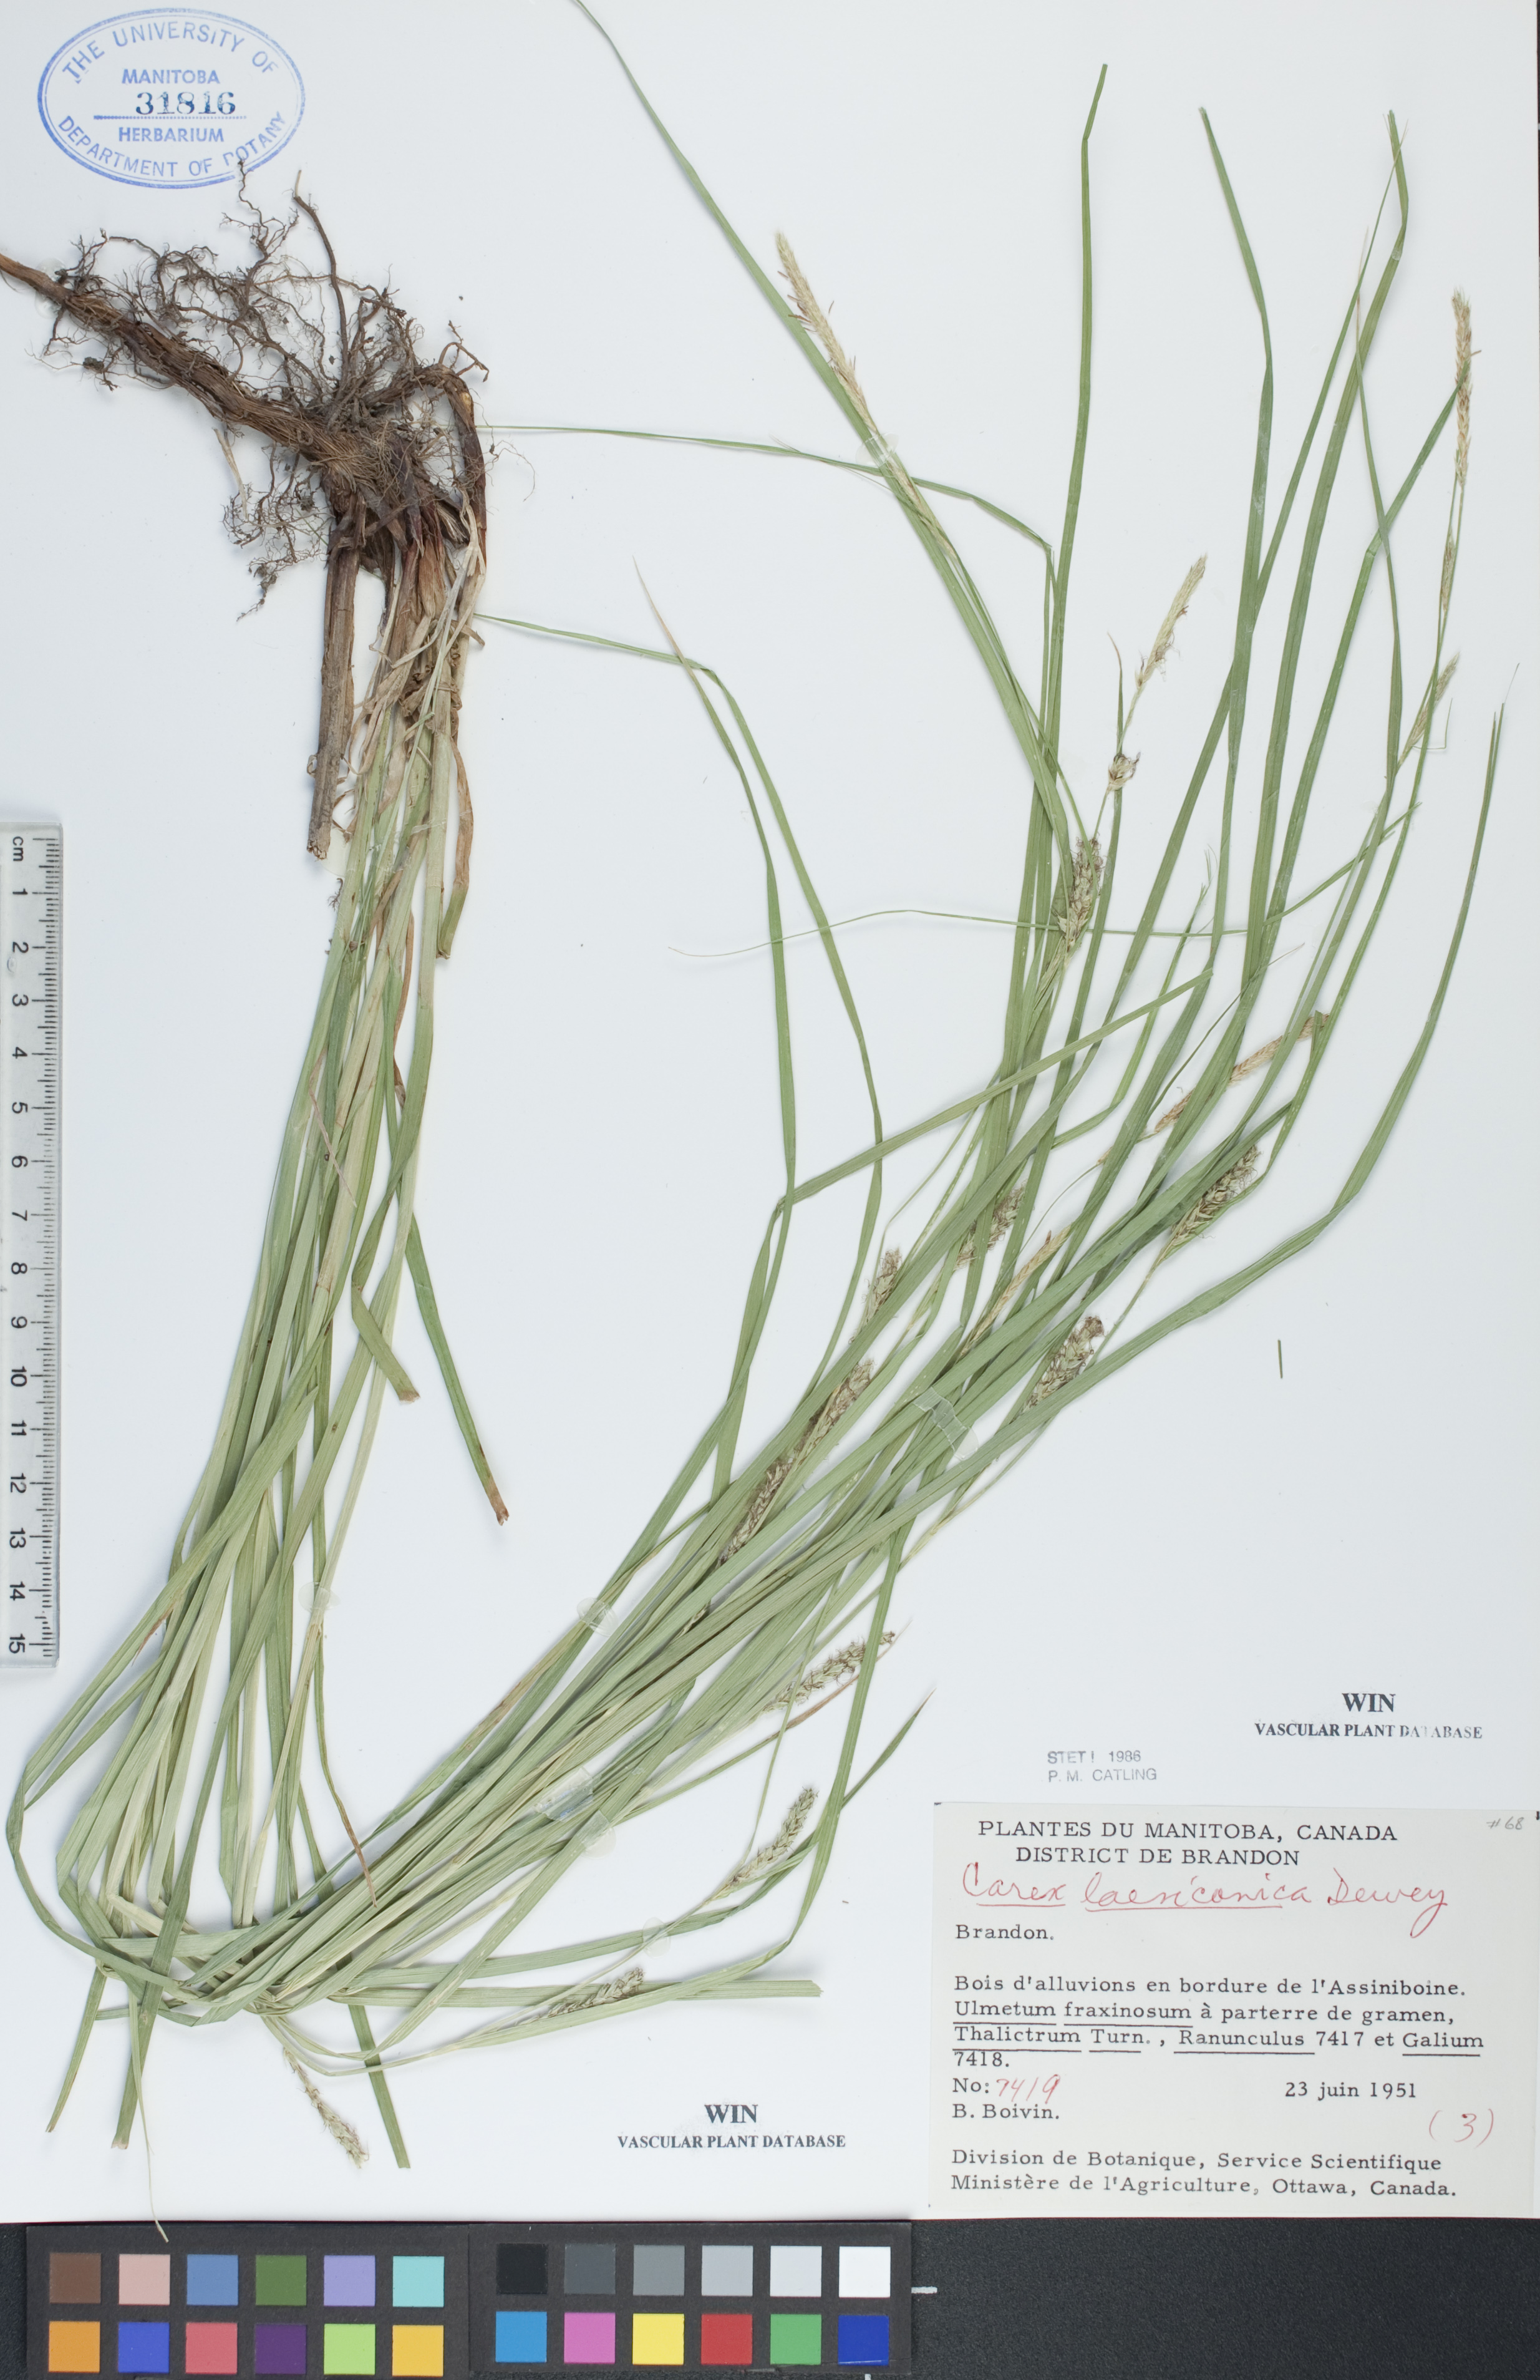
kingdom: Plantae
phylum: Tracheophyta
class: Liliopsida
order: Poales
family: Cyperaceae
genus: Carex
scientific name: Carex laeviconica
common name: Plains slough sedge
